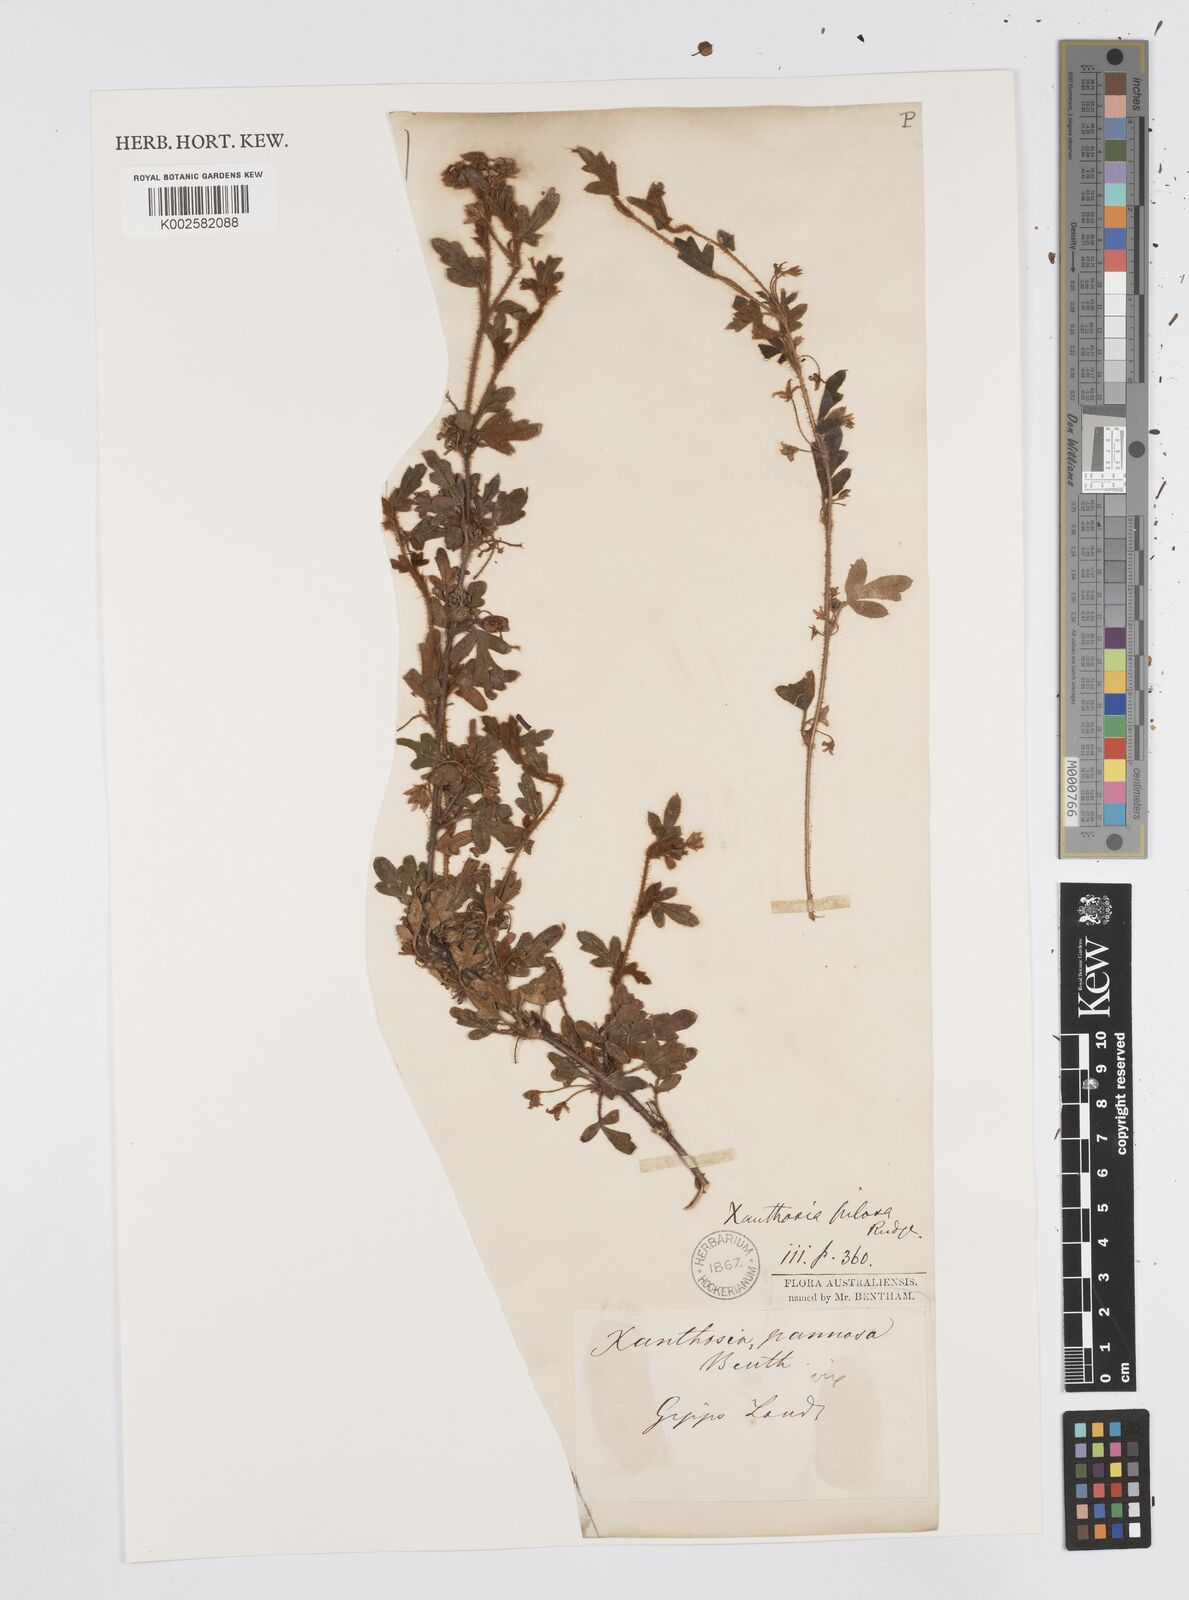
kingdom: Plantae
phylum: Tracheophyta
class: Magnoliopsida
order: Apiales
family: Apiaceae
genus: Xanthosia
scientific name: Xanthosia pilosa
